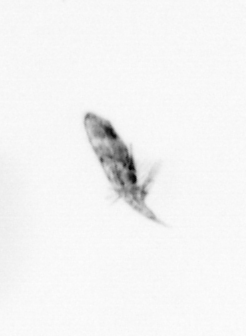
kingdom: Animalia
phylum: Arthropoda
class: Copepoda
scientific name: Copepoda
